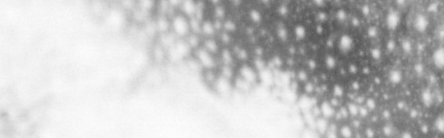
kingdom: Animalia
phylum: Chordata
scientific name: Chordata
